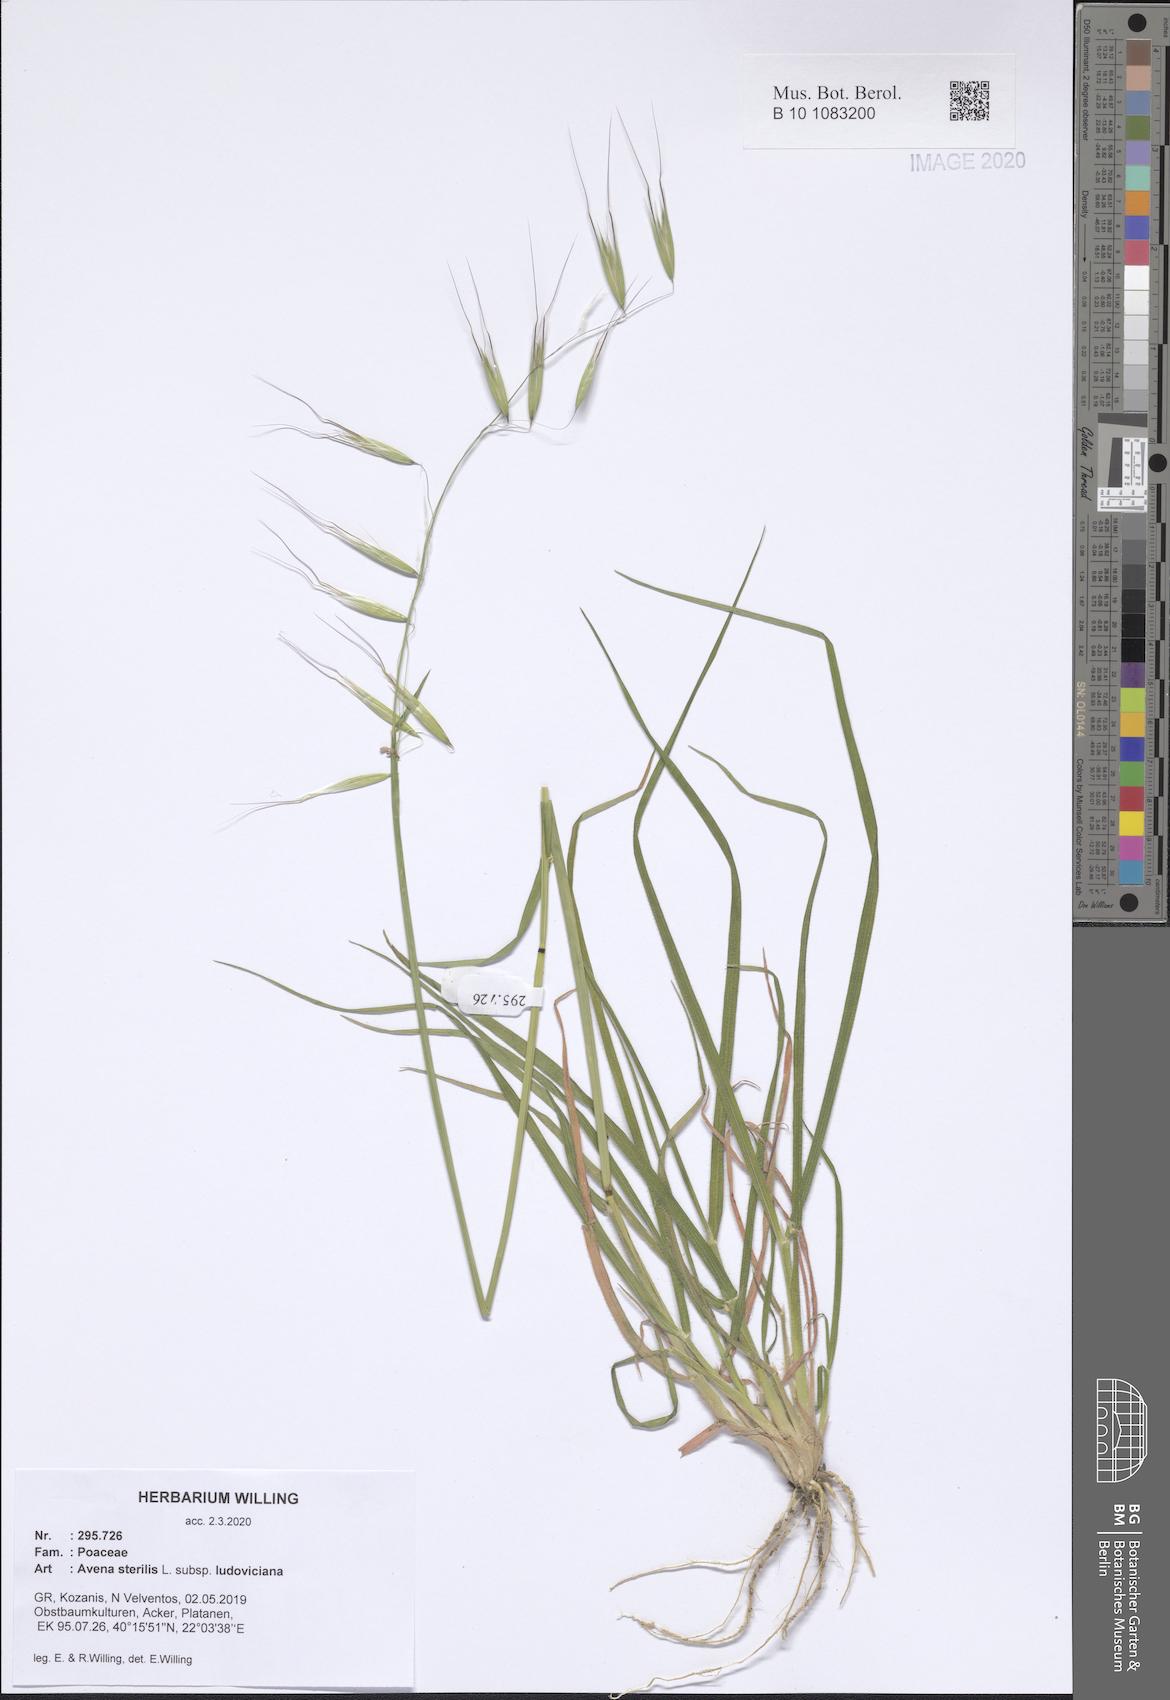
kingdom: Plantae
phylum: Tracheophyta
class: Liliopsida
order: Poales
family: Poaceae
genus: Avena
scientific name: Avena sterilis
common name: Animated oat
